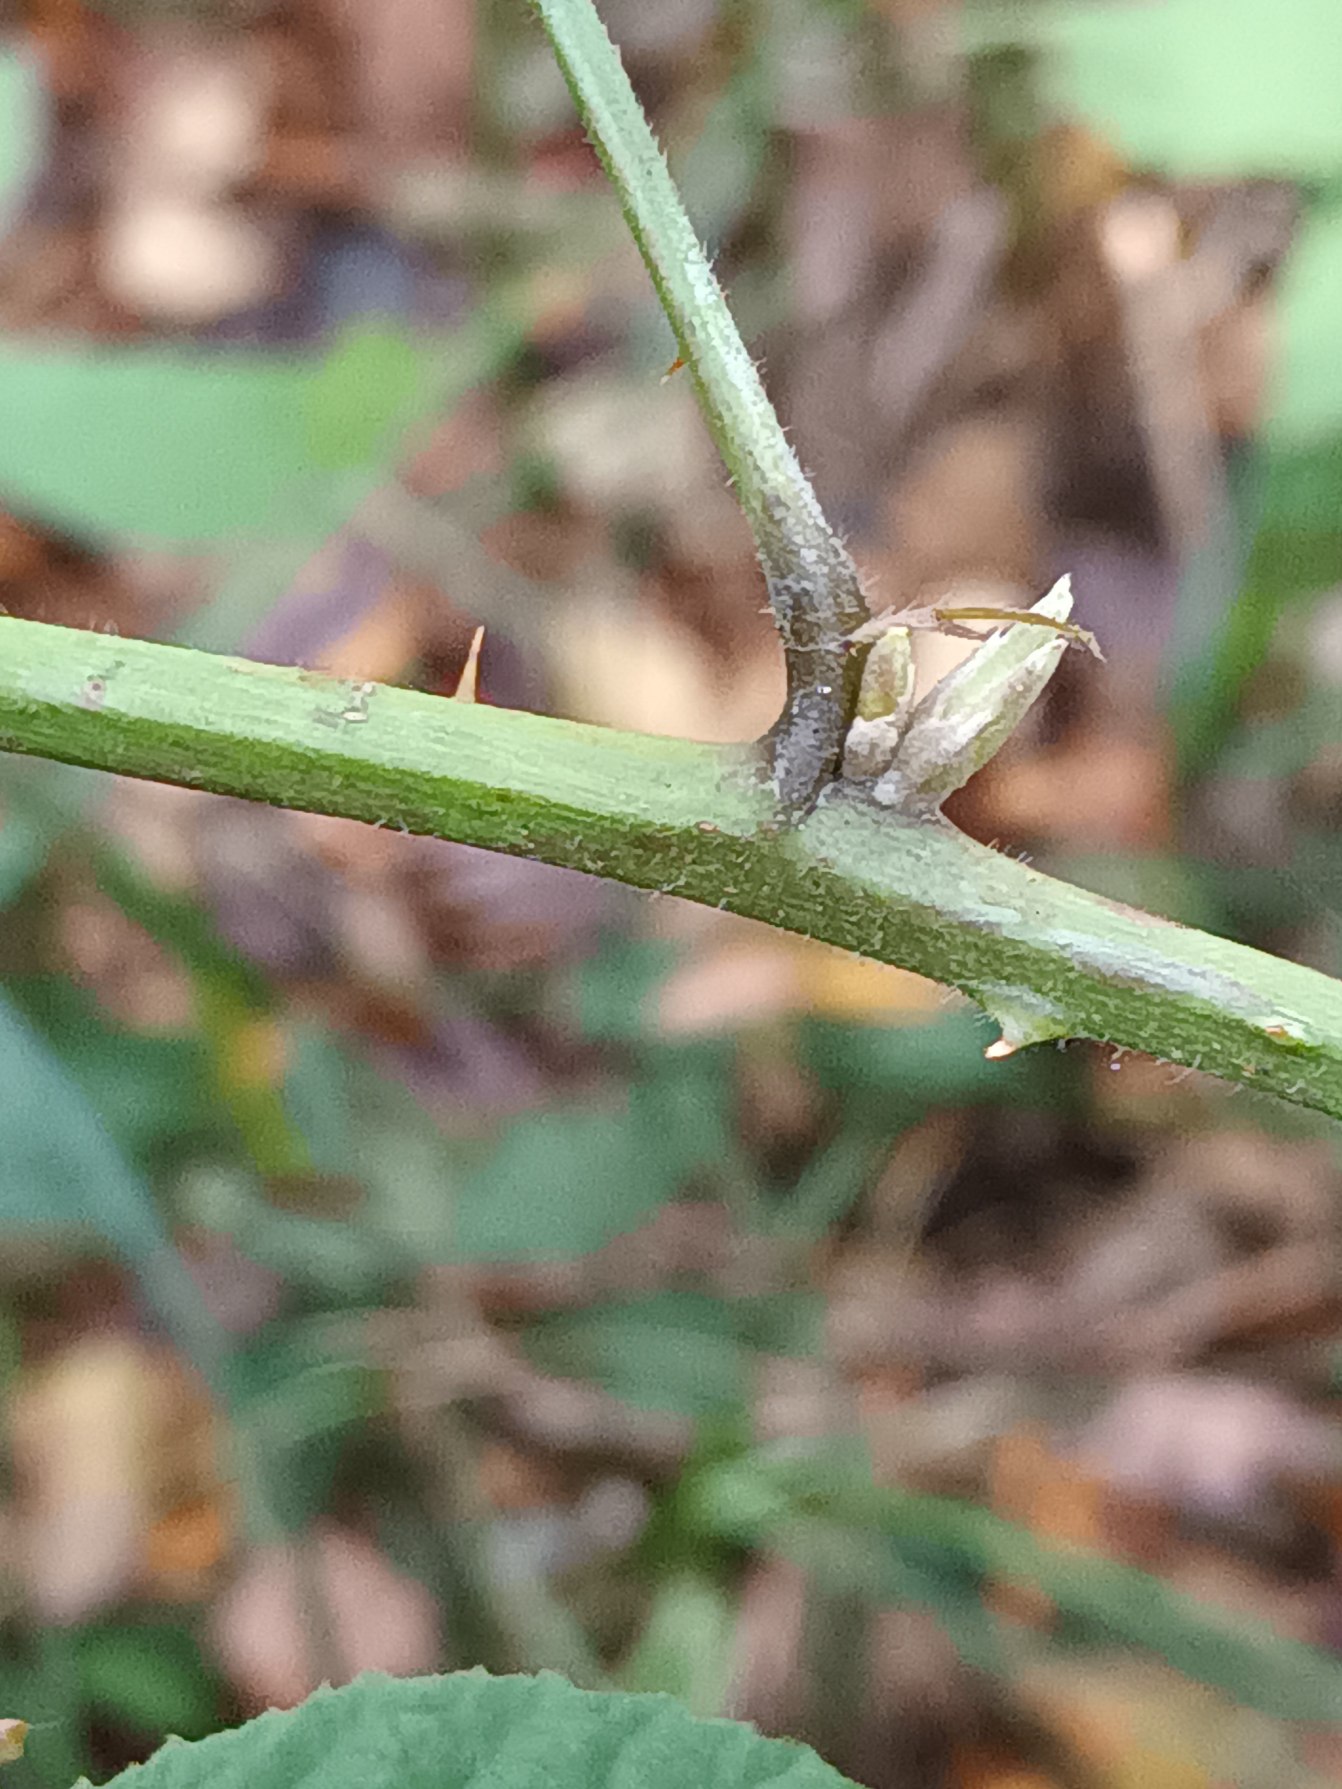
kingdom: Plantae
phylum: Tracheophyta
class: Magnoliopsida
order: Rosales
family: Rosaceae
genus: Rubus
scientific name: Rubus radula
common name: Rasperu brombær
